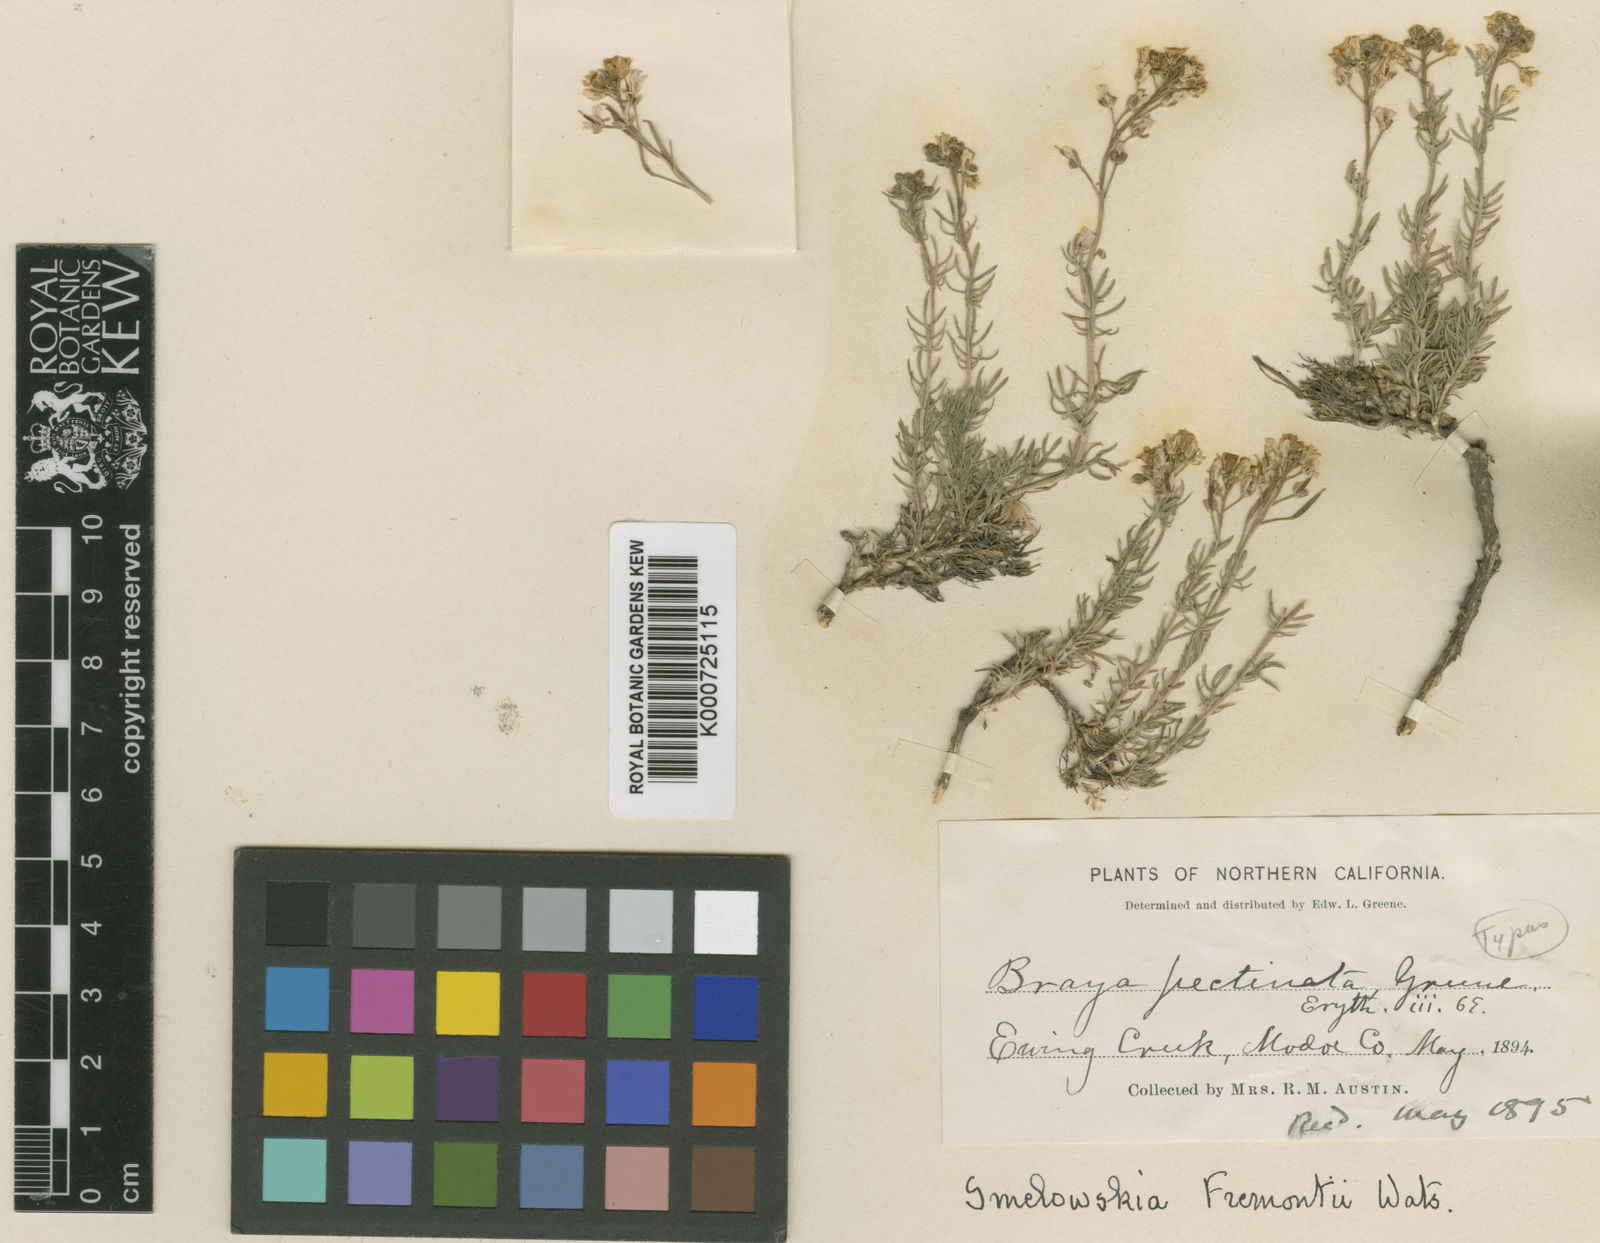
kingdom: Plantae
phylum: Tracheophyta
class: Magnoliopsida
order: Brassicales
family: Brassicaceae
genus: Polyctenium
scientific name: Polyctenium fremontii
